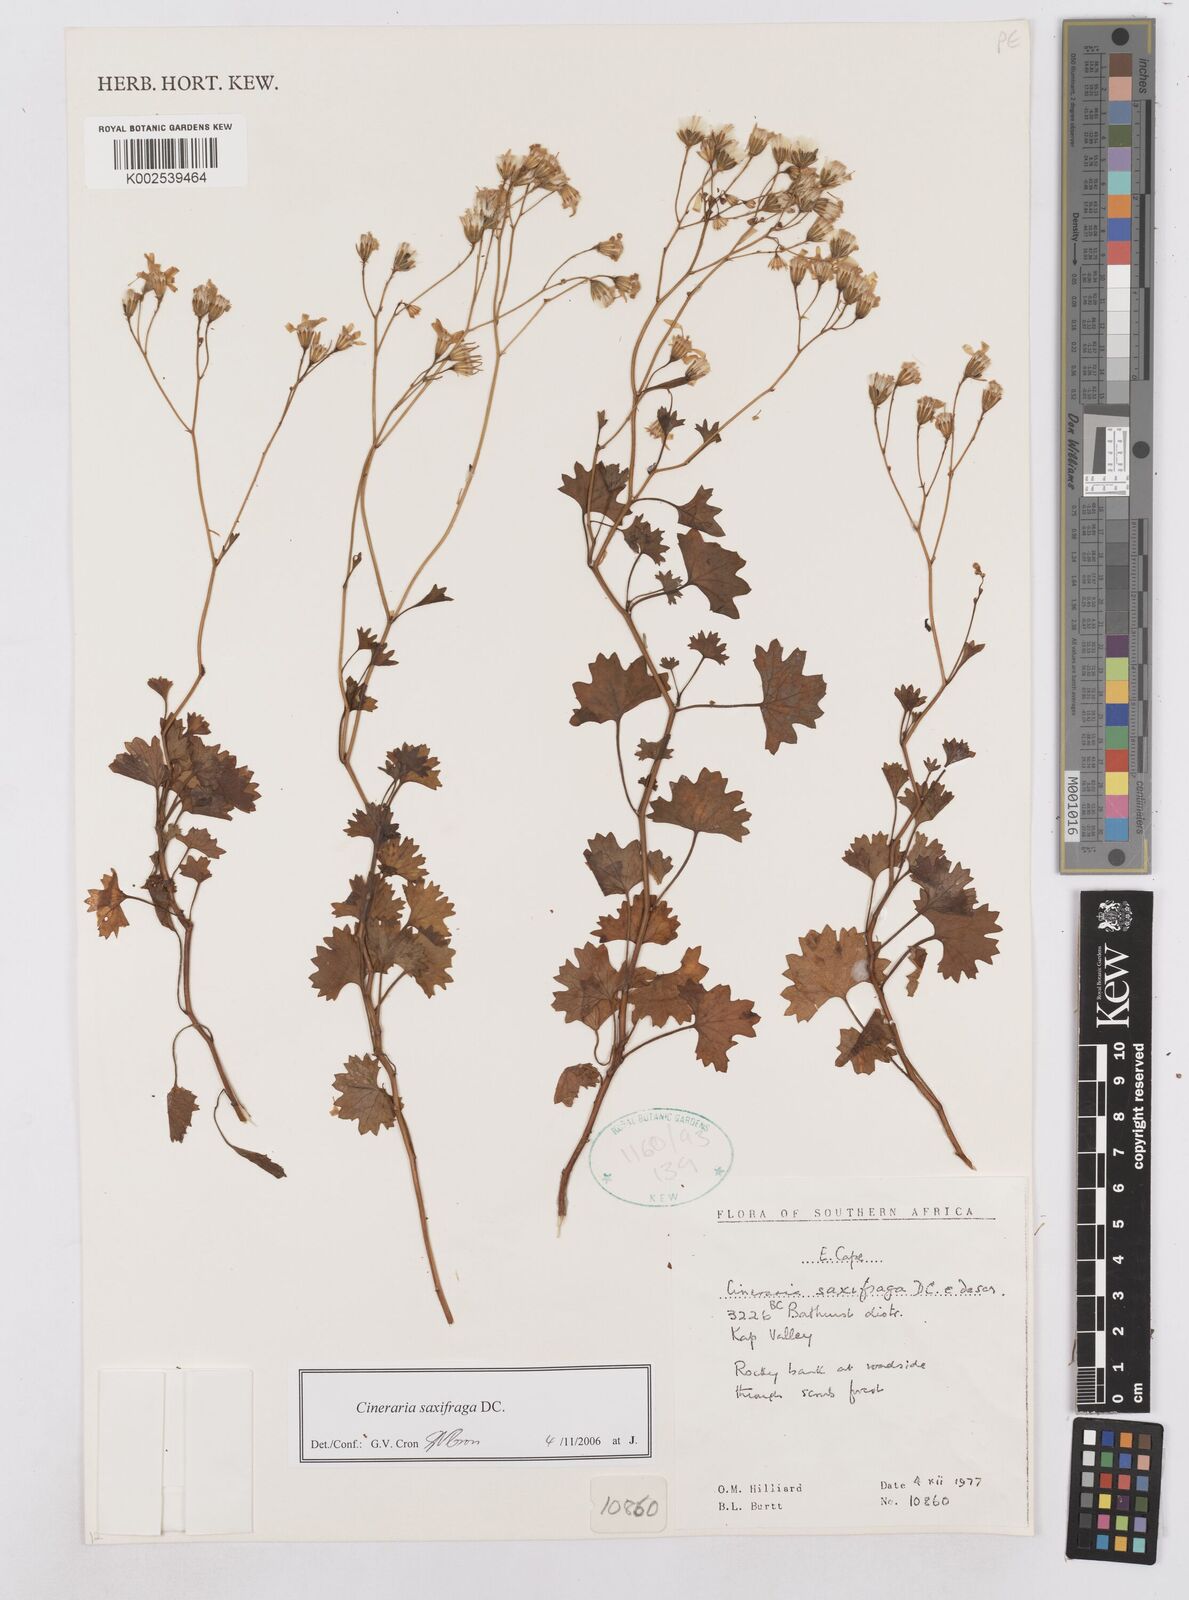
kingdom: Plantae
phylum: Tracheophyta
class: Magnoliopsida
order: Asterales
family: Asteraceae
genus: Cineraria
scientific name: Cineraria saxifraga
